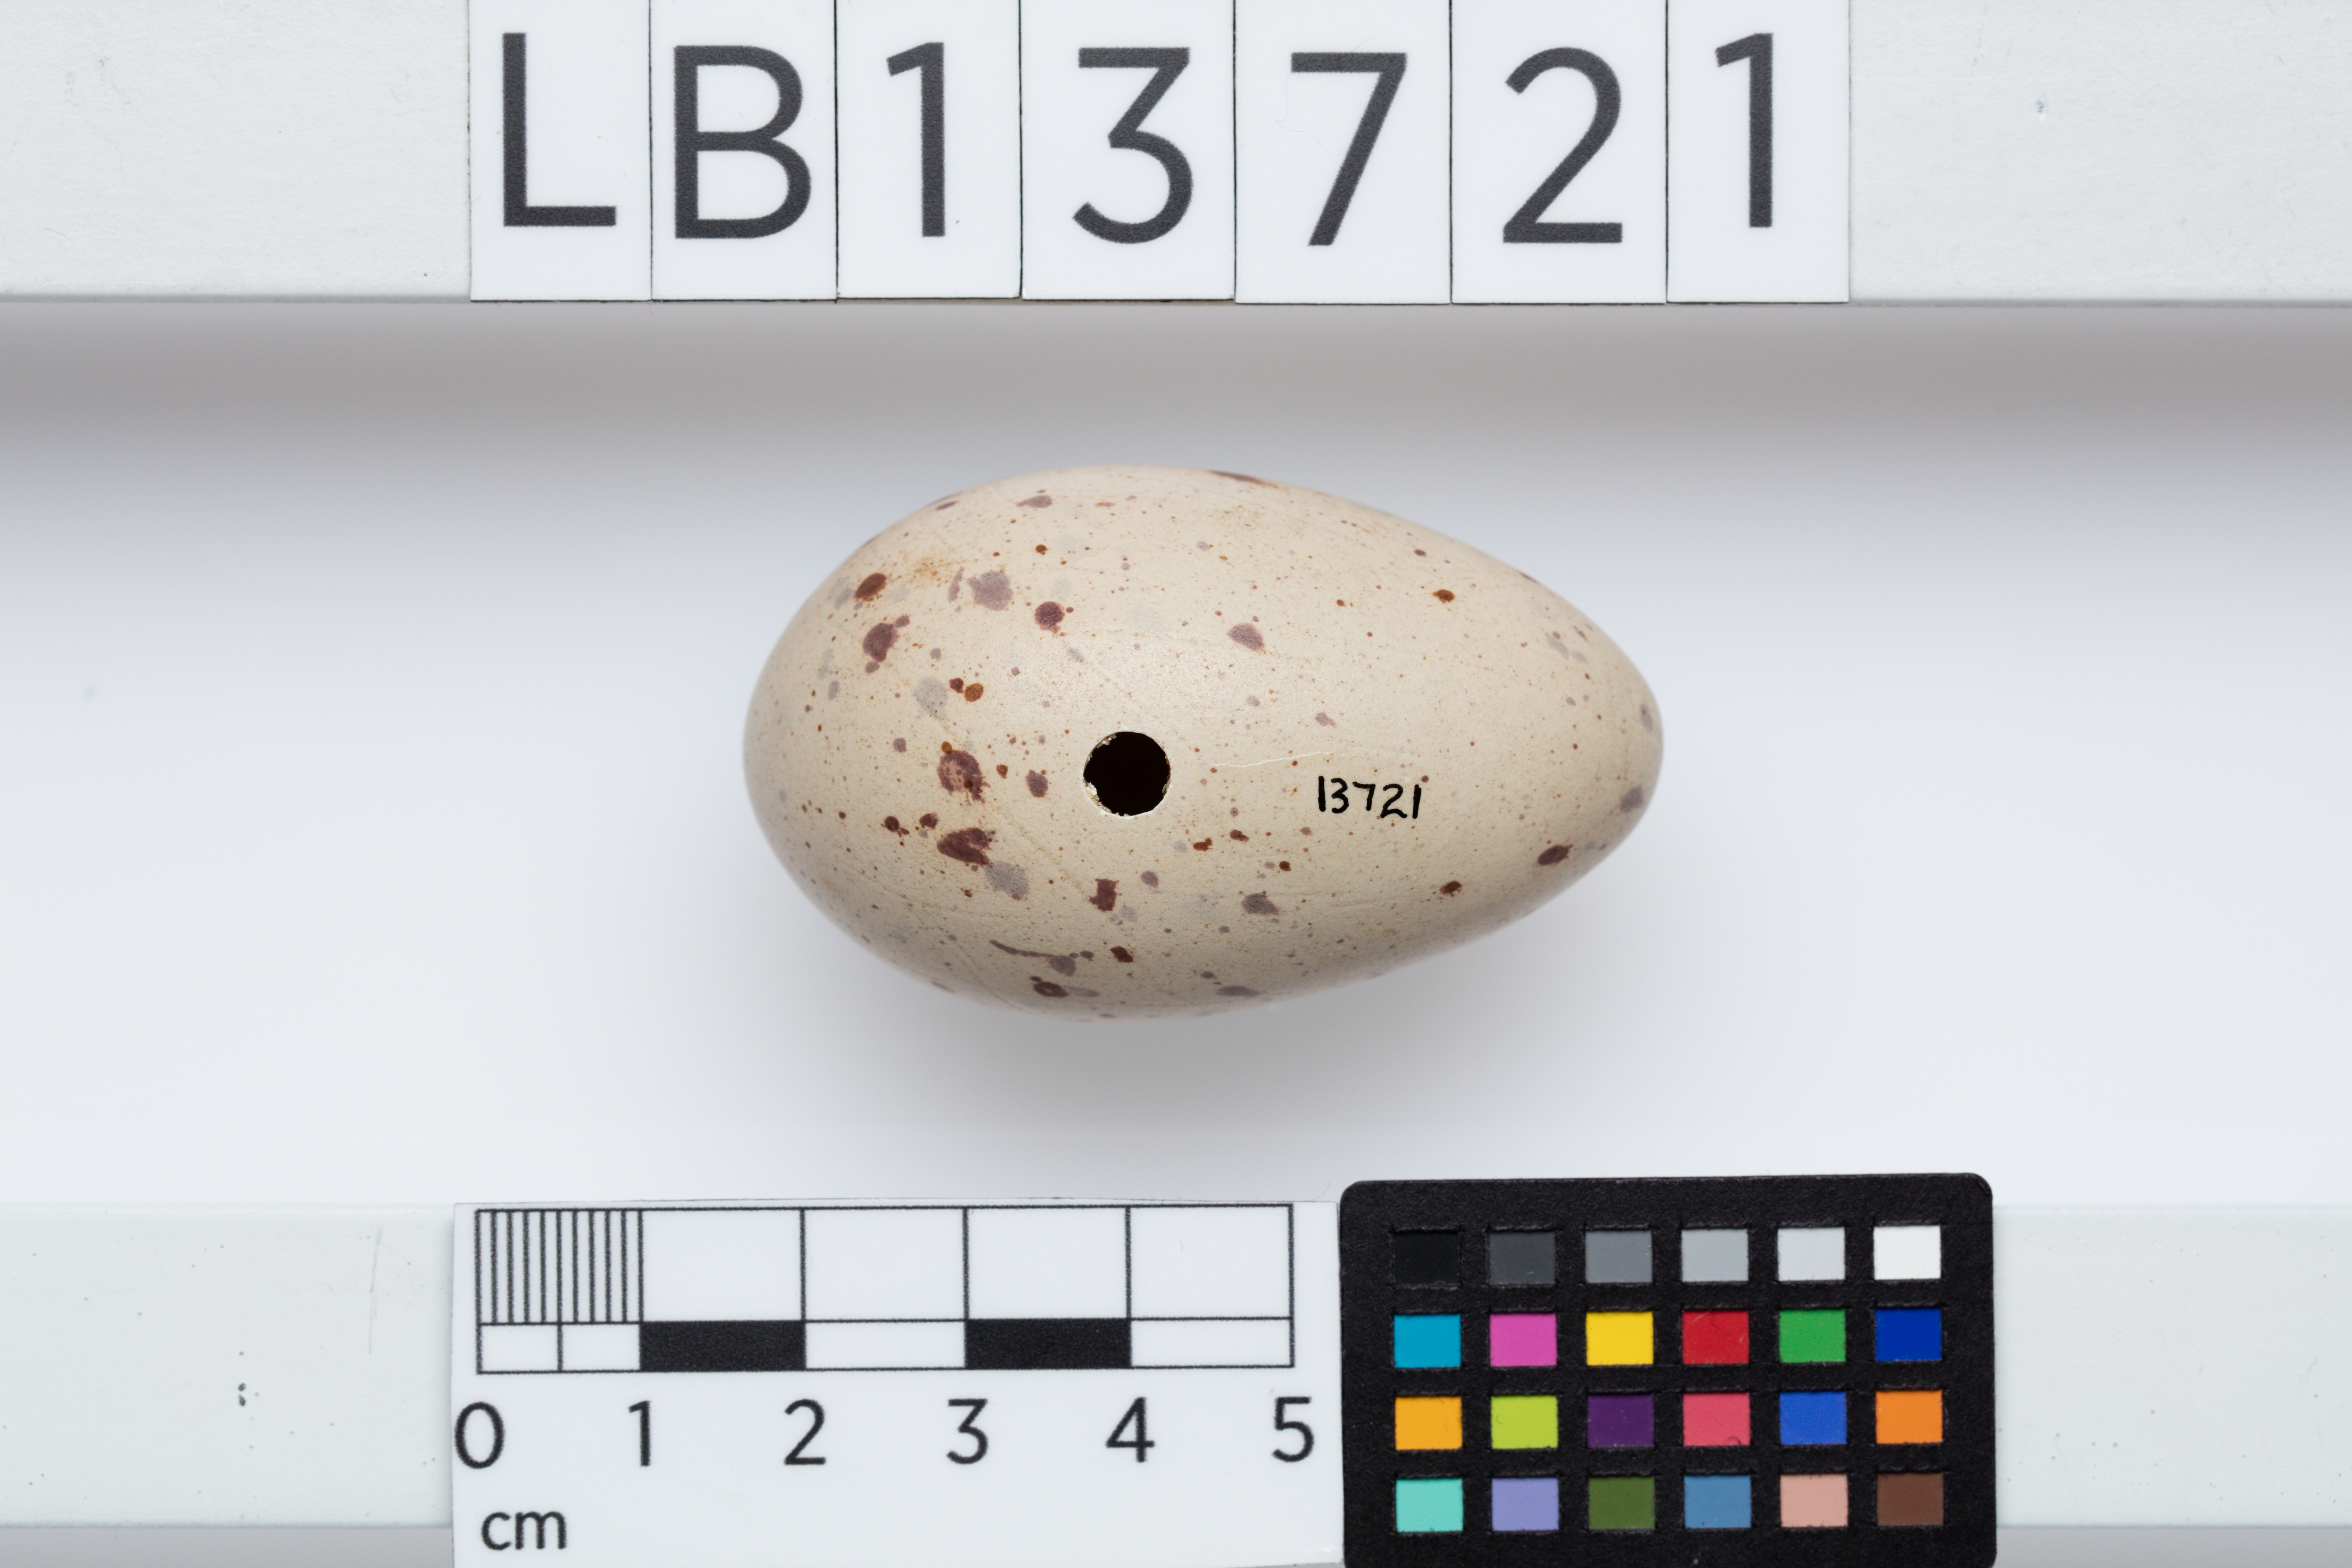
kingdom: Animalia
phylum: Chordata
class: Aves
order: Gruiformes
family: Rallidae
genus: Porphyrio
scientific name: Porphyrio melanotus
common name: Australasian swamphen
